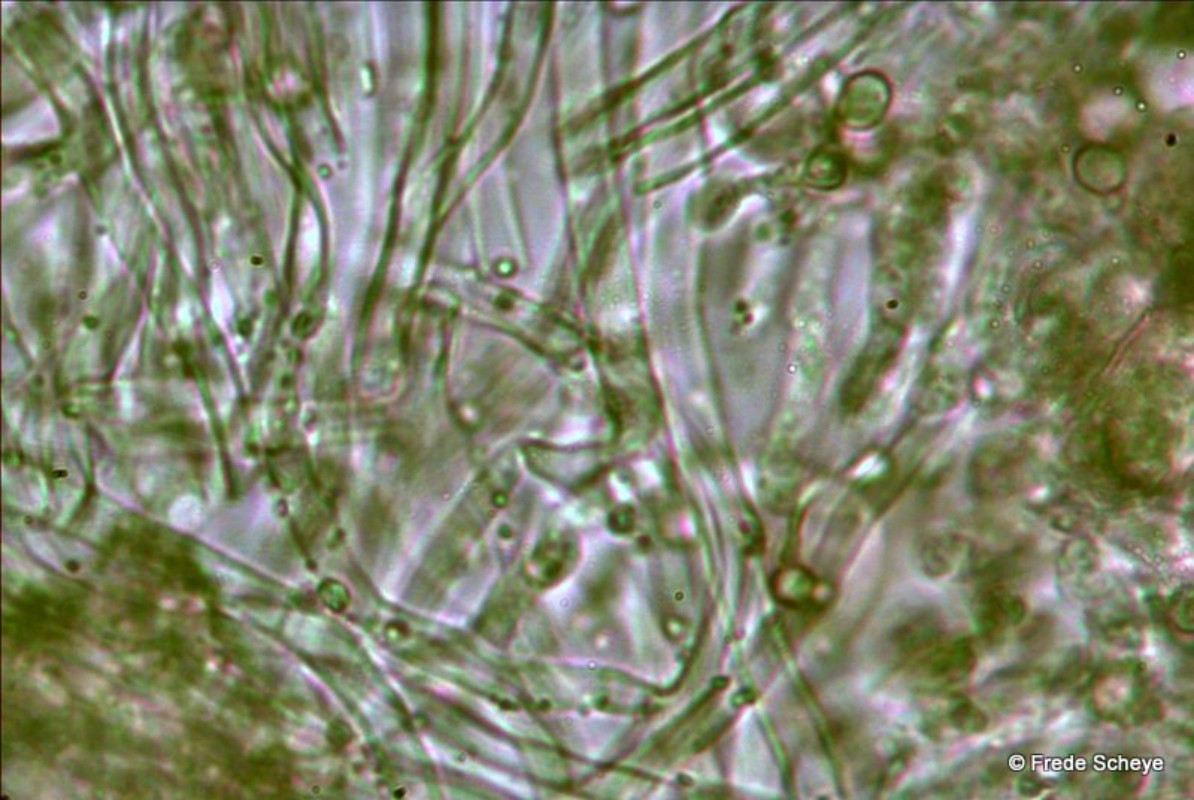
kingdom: Fungi
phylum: Basidiomycota
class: Agaricomycetes
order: Polyporales
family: Irpicaceae
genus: Byssomerulius
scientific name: Byssomerulius corium
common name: læder-åresvamp
